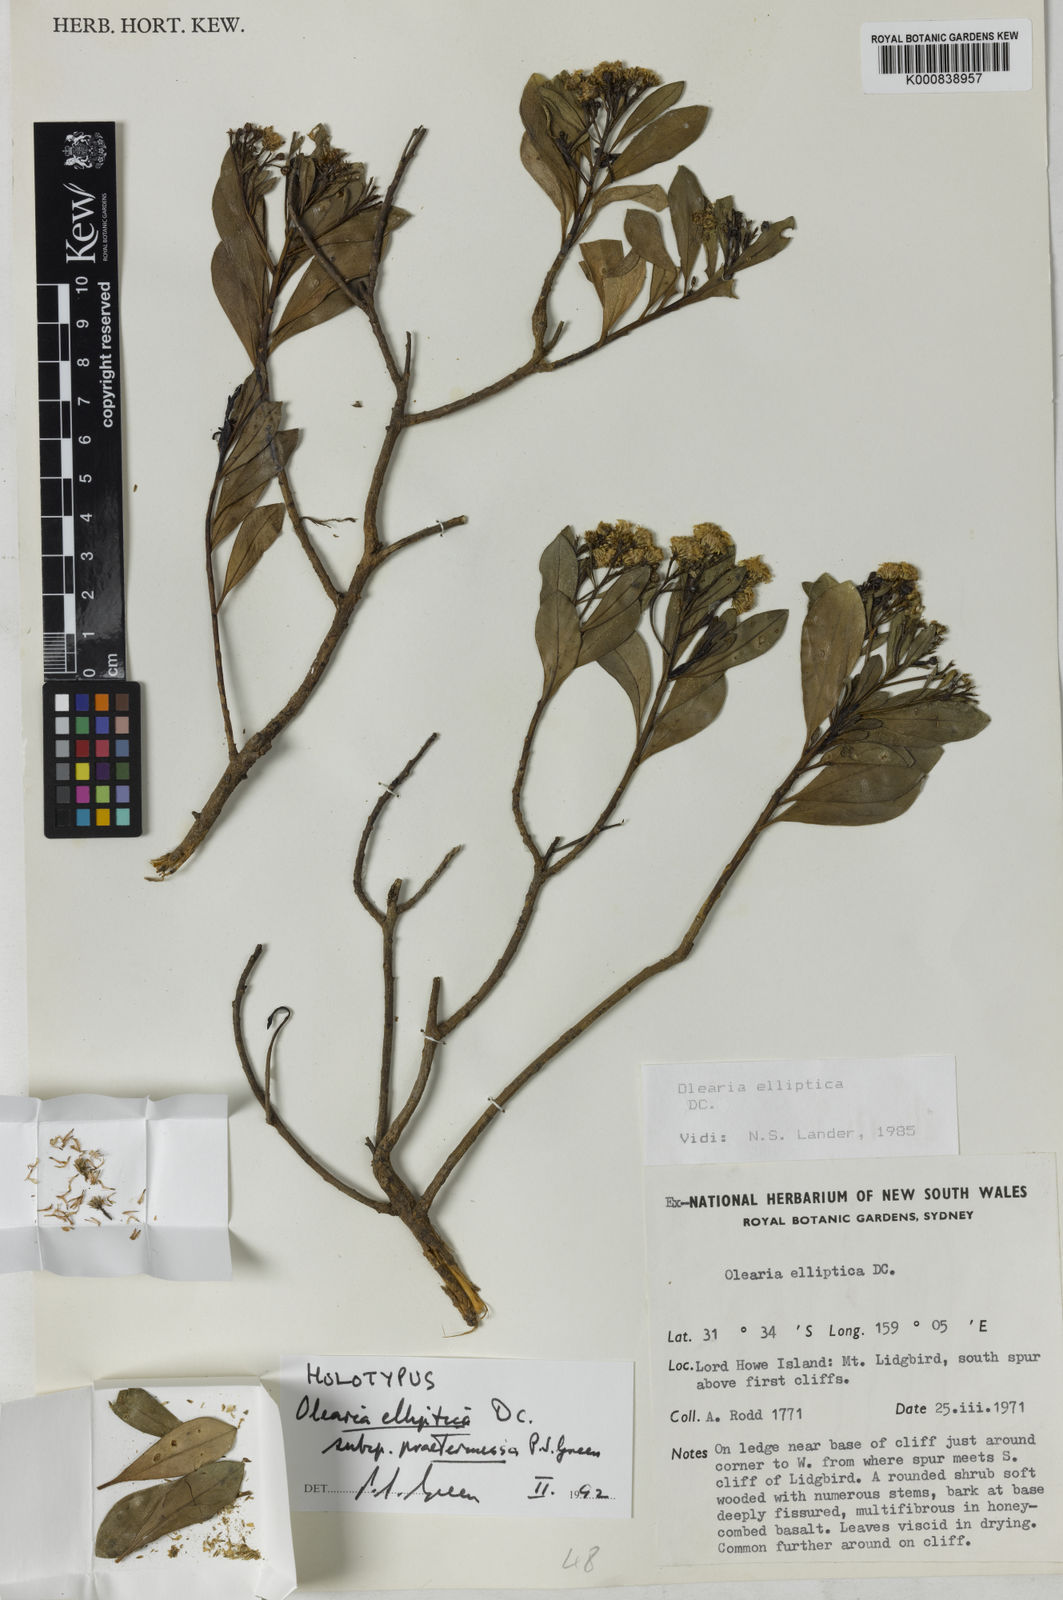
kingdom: Plantae
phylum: Tracheophyta
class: Magnoliopsida
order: Asterales
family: Asteraceae
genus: Phaseolaster
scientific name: Phaseolaster praetermissa
